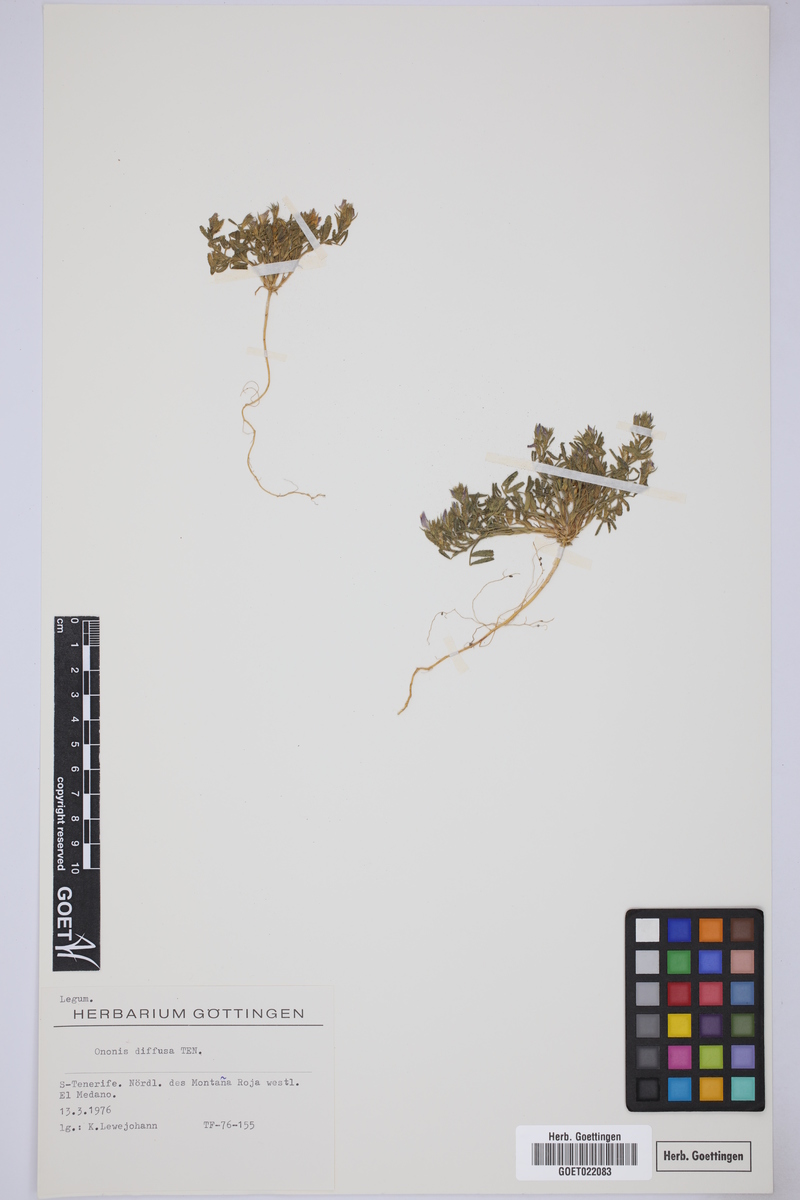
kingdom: Plantae
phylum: Tracheophyta
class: Magnoliopsida
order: Fabales
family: Fabaceae
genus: Ononis
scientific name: Ononis diffusa
